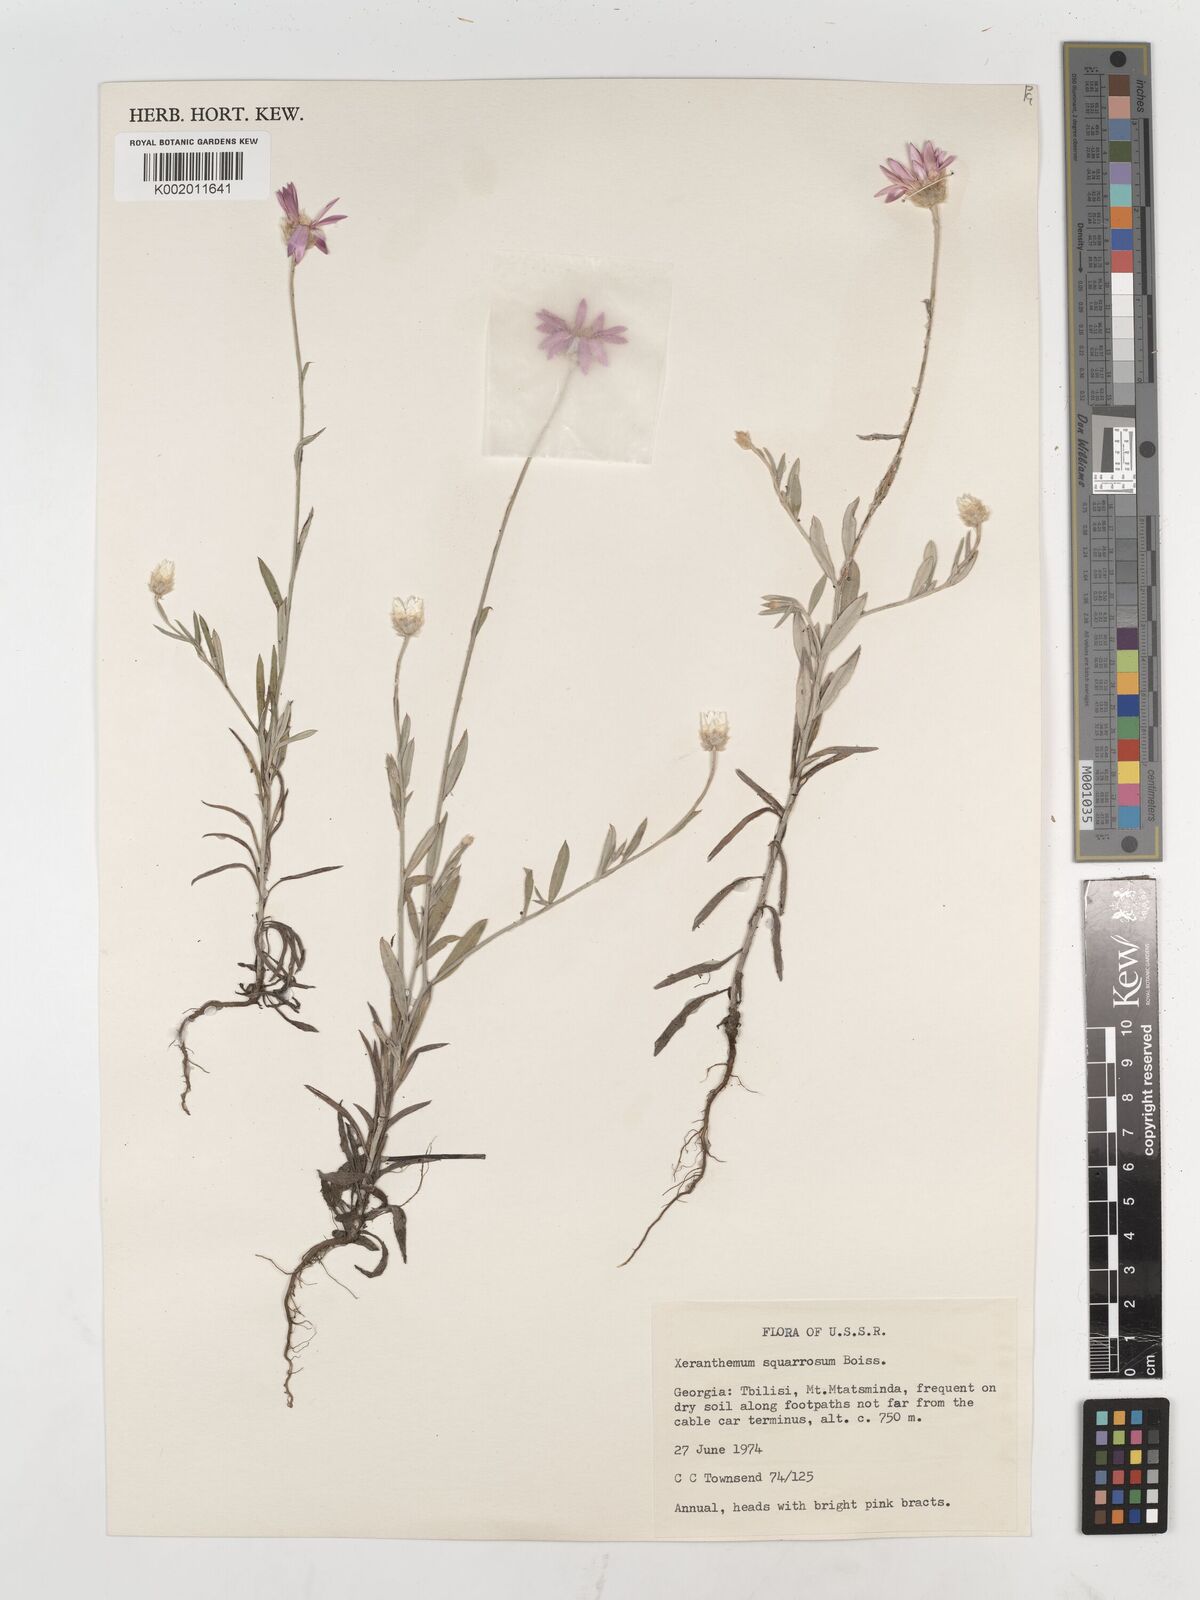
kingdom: Plantae
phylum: Tracheophyta
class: Magnoliopsida
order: Asterales
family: Asteraceae
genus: Xeranthemum
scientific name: Xeranthemum squarrosum
